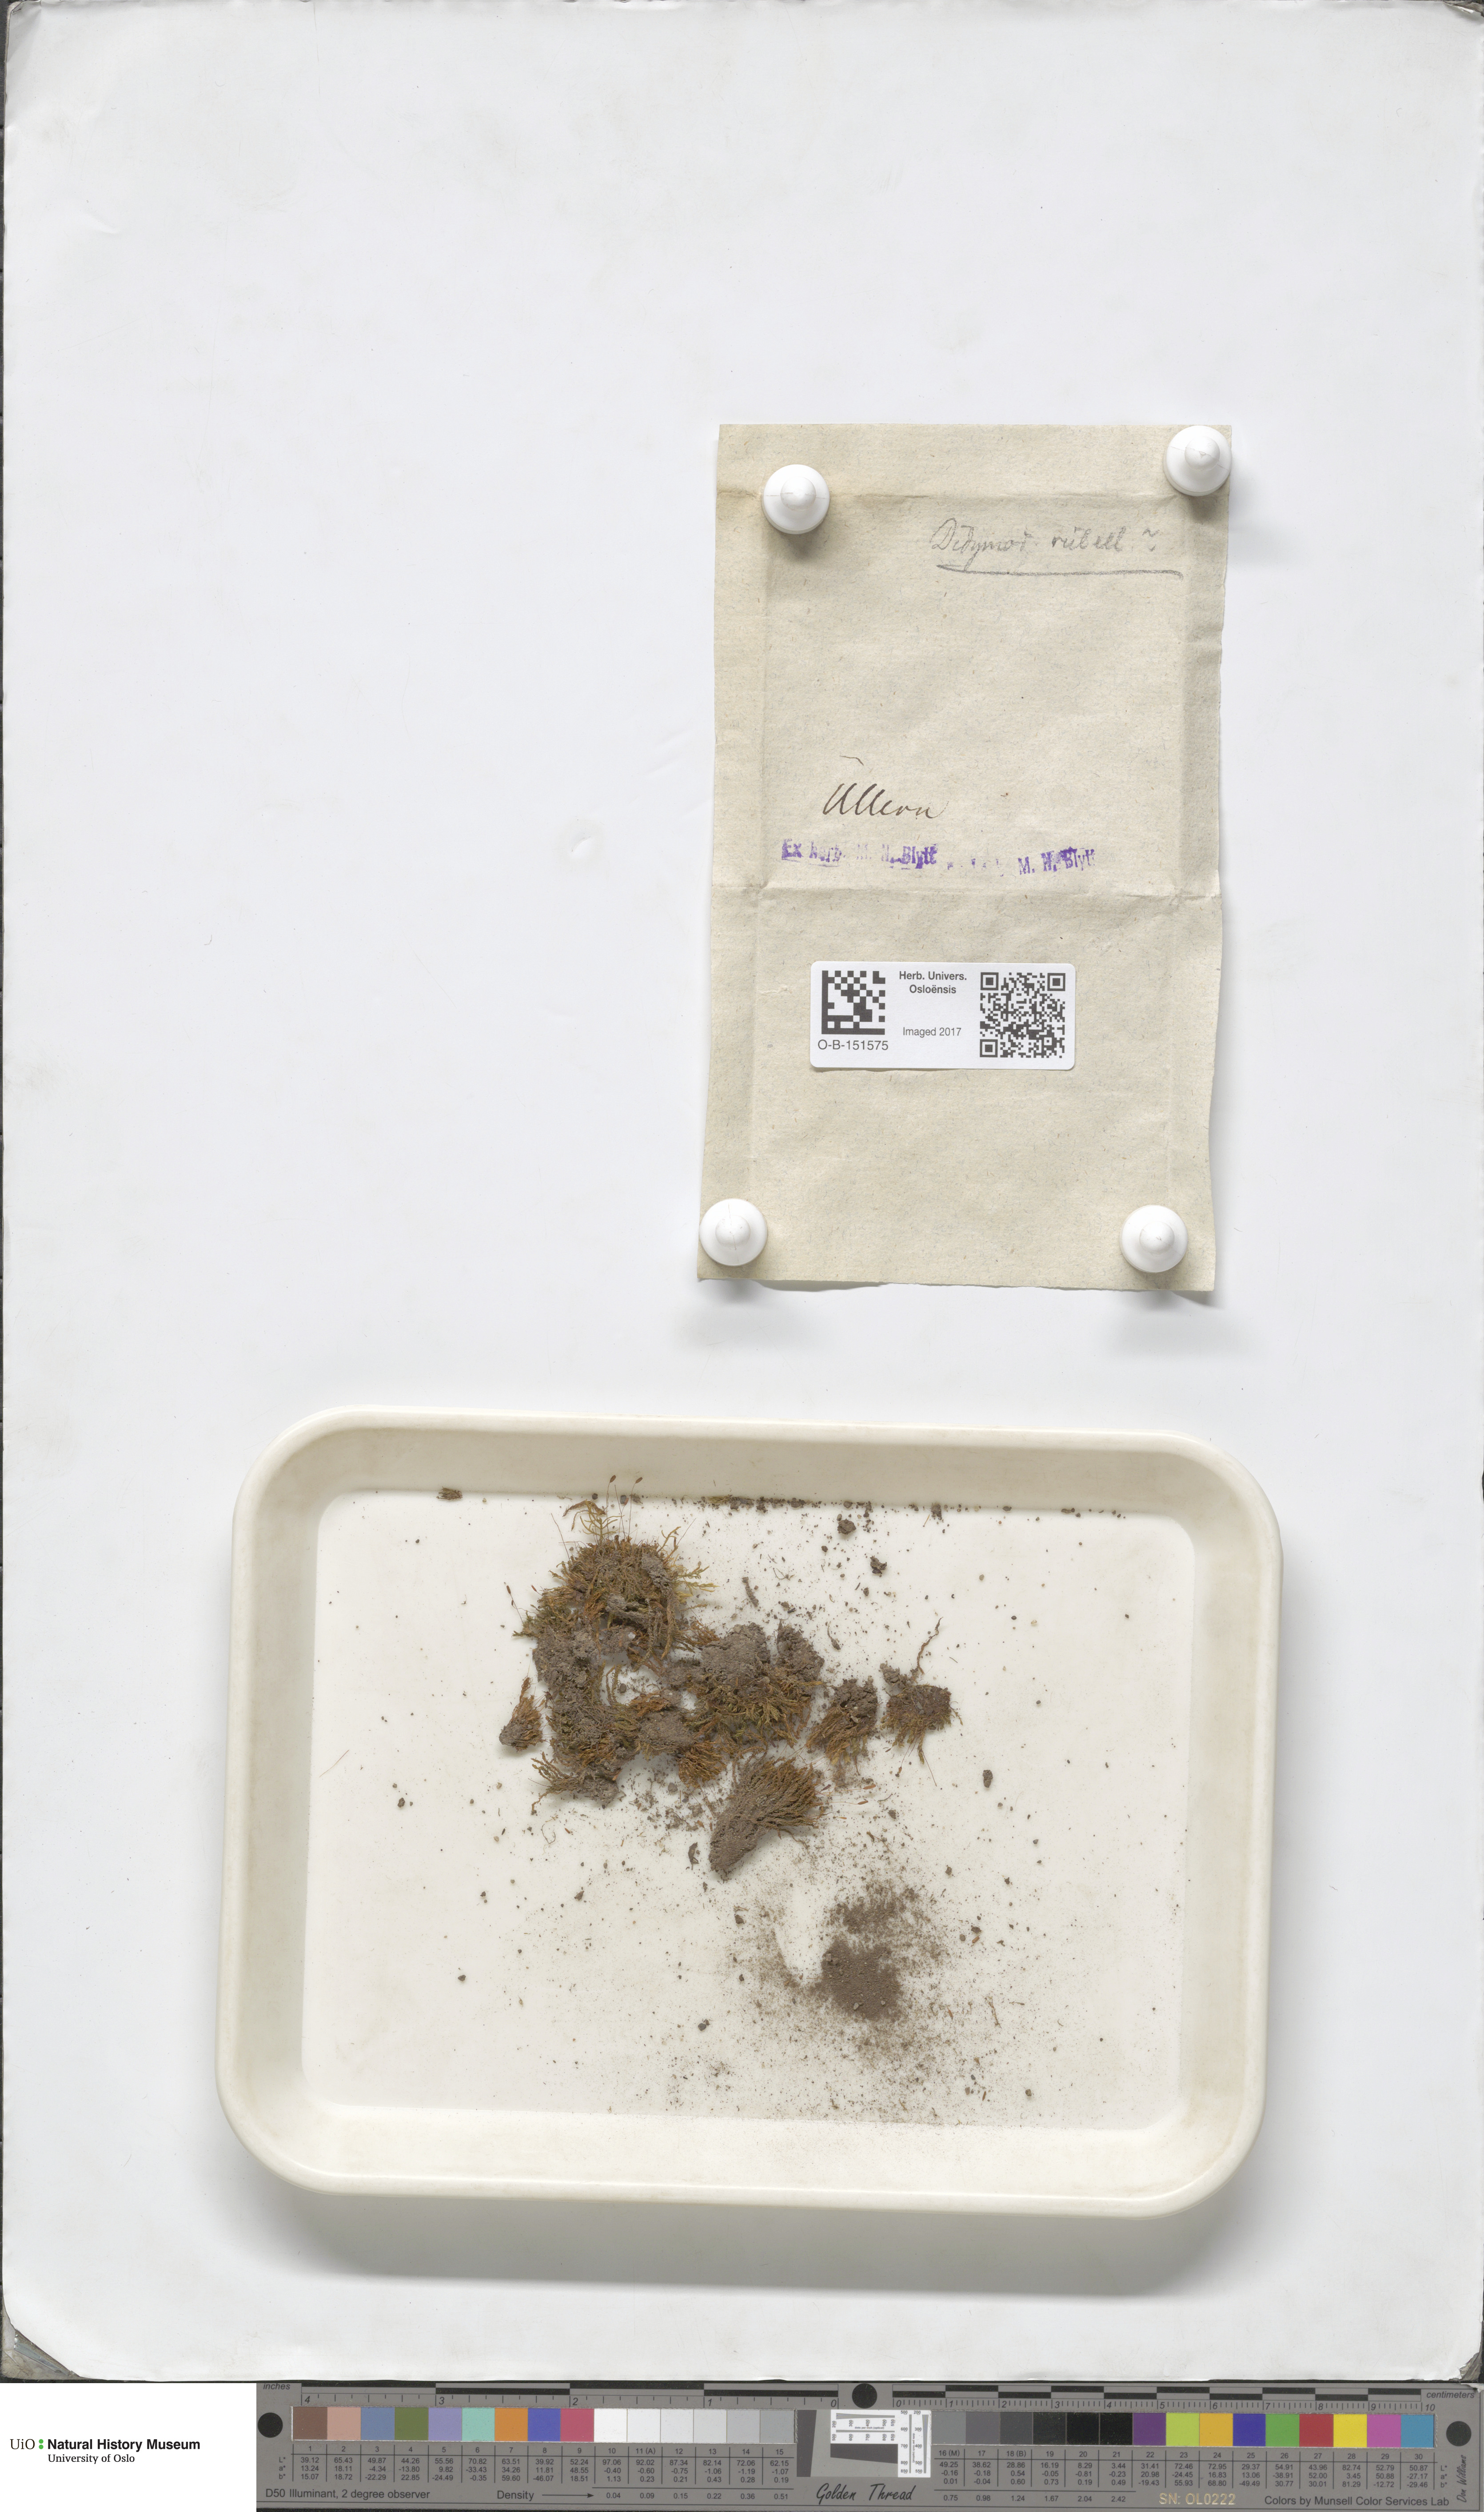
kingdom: Plantae
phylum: Bryophyta
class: Bryopsida
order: Pottiales
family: Pottiaceae
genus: Bryoerythrophyllum
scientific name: Bryoerythrophyllum recurvirostrum
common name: Red beard moss
